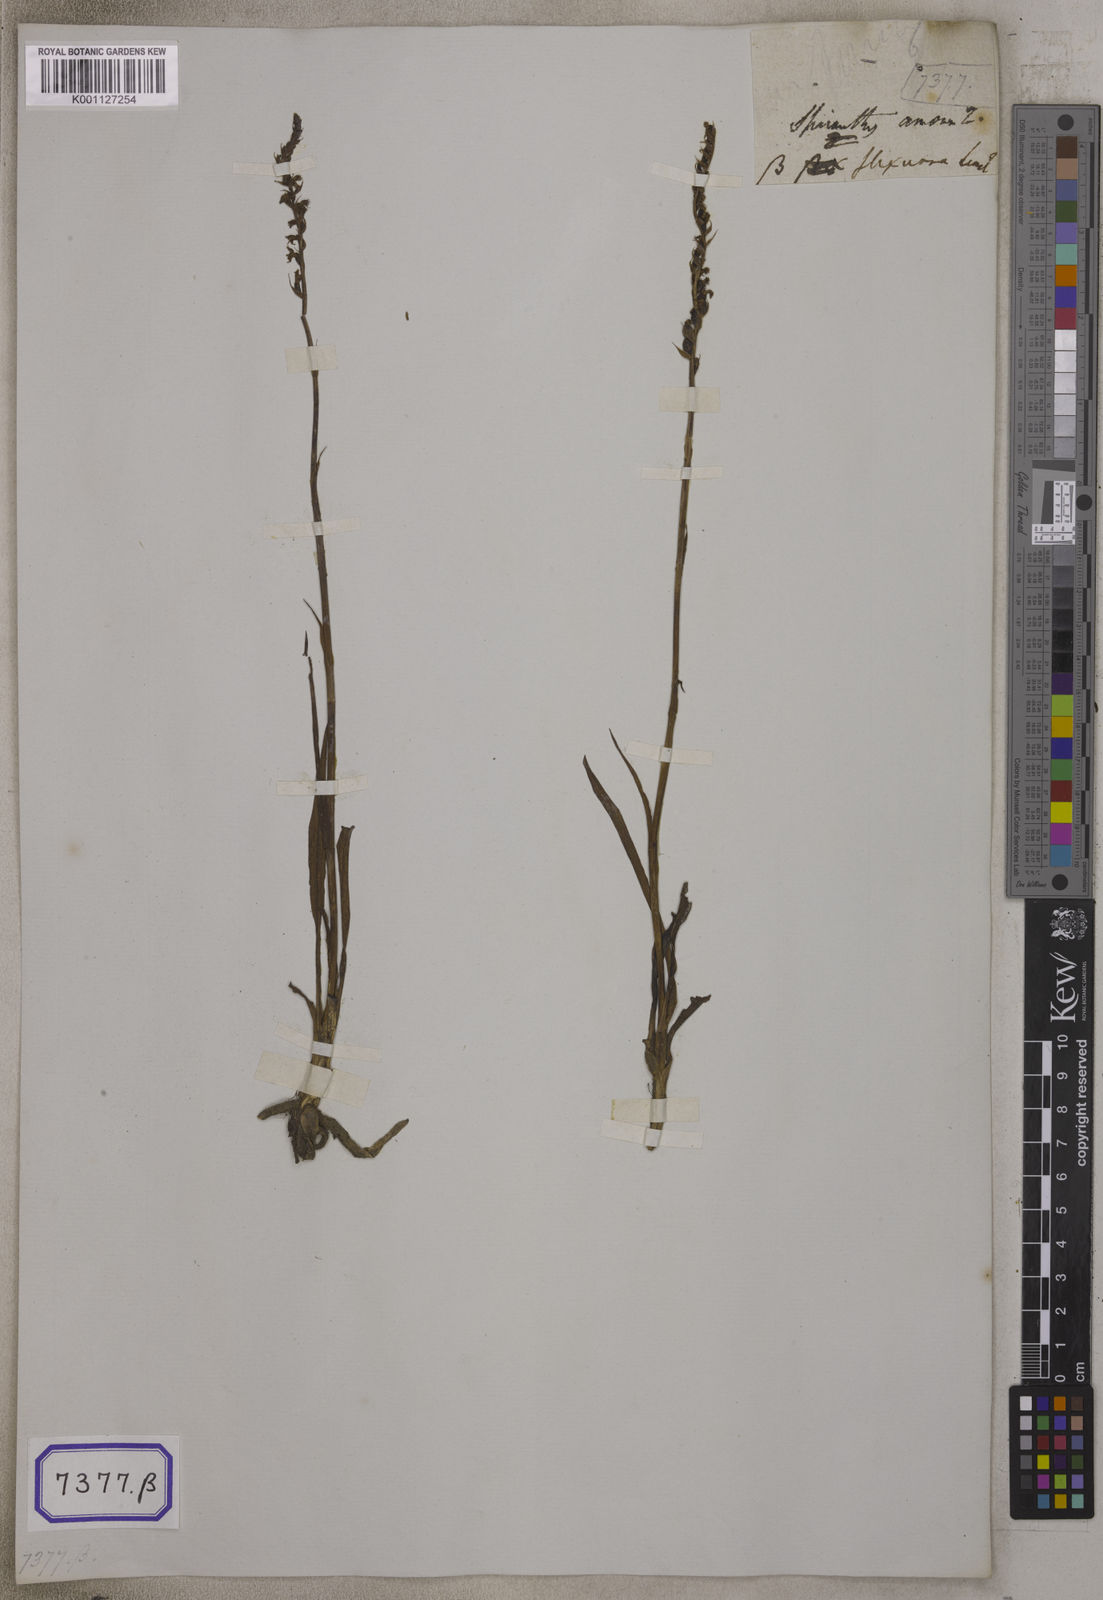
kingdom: Plantae
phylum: Tracheophyta
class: Liliopsida
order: Asparagales
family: Orchidaceae
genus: Spiranthes
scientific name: Spiranthes
